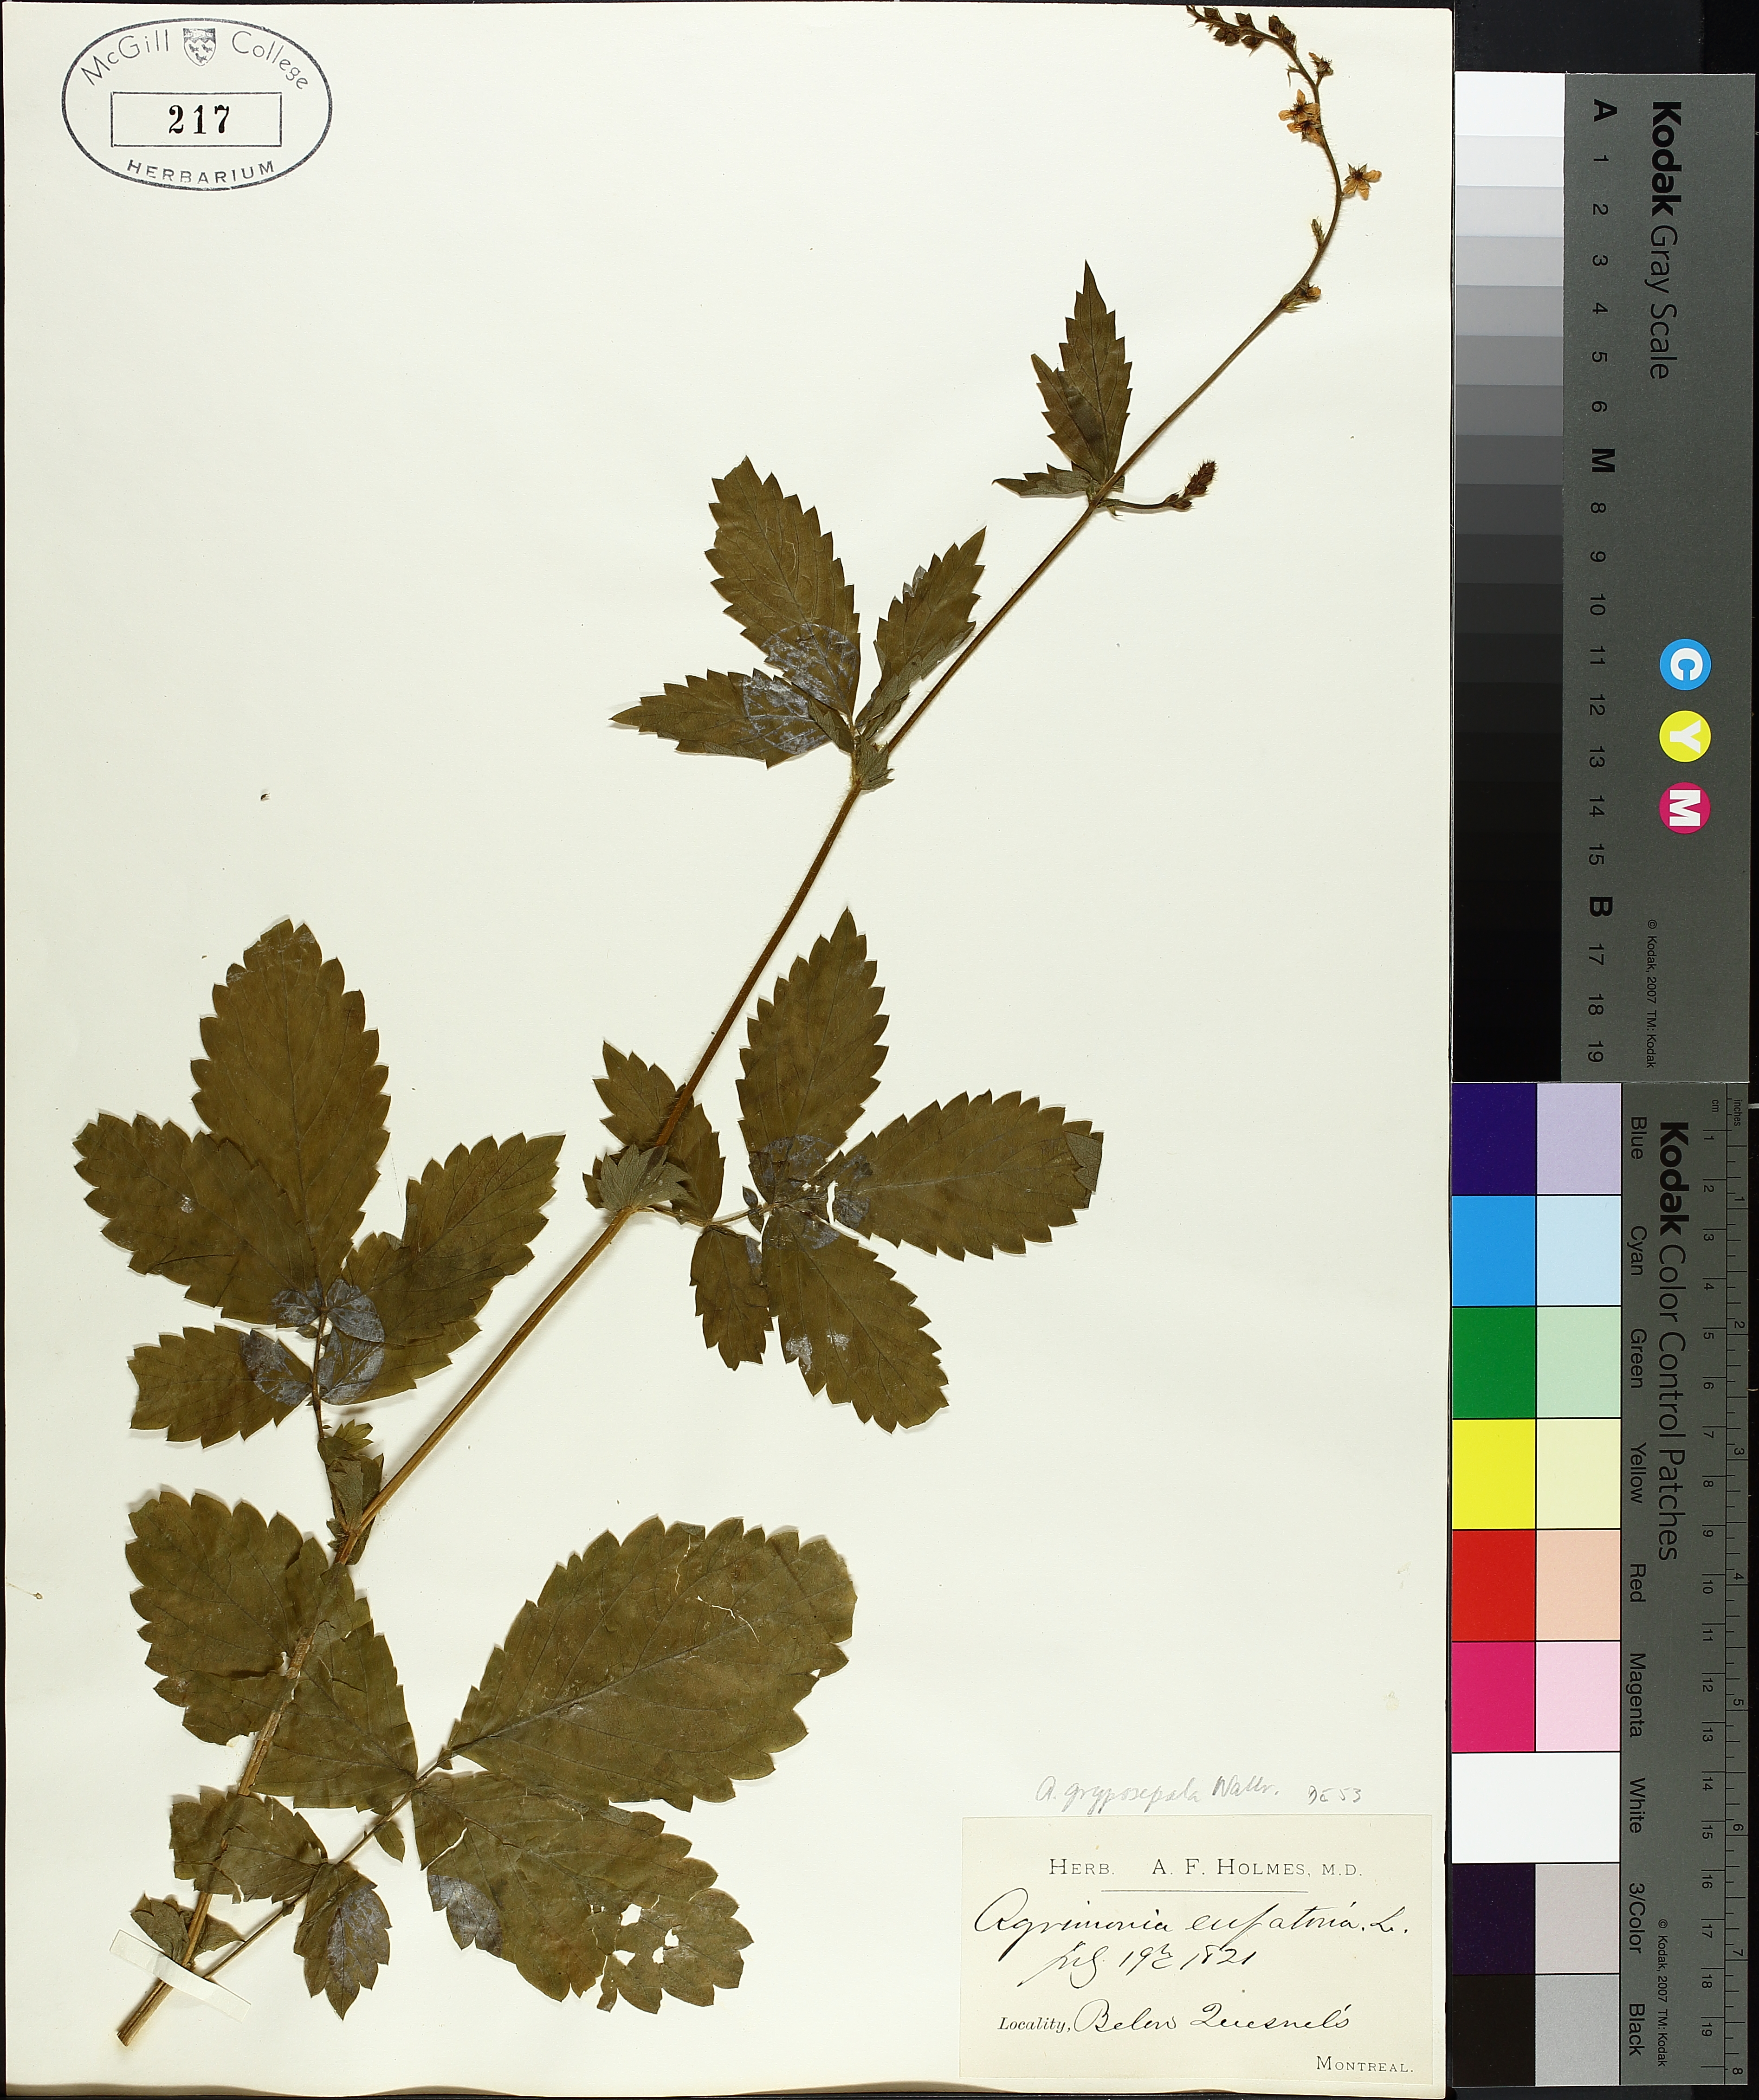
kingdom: Plantae
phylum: Tracheophyta
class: Magnoliopsida
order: Rosales
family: Rosaceae
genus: Agrimonia
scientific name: Agrimonia gryposepala
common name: Common agrimony
